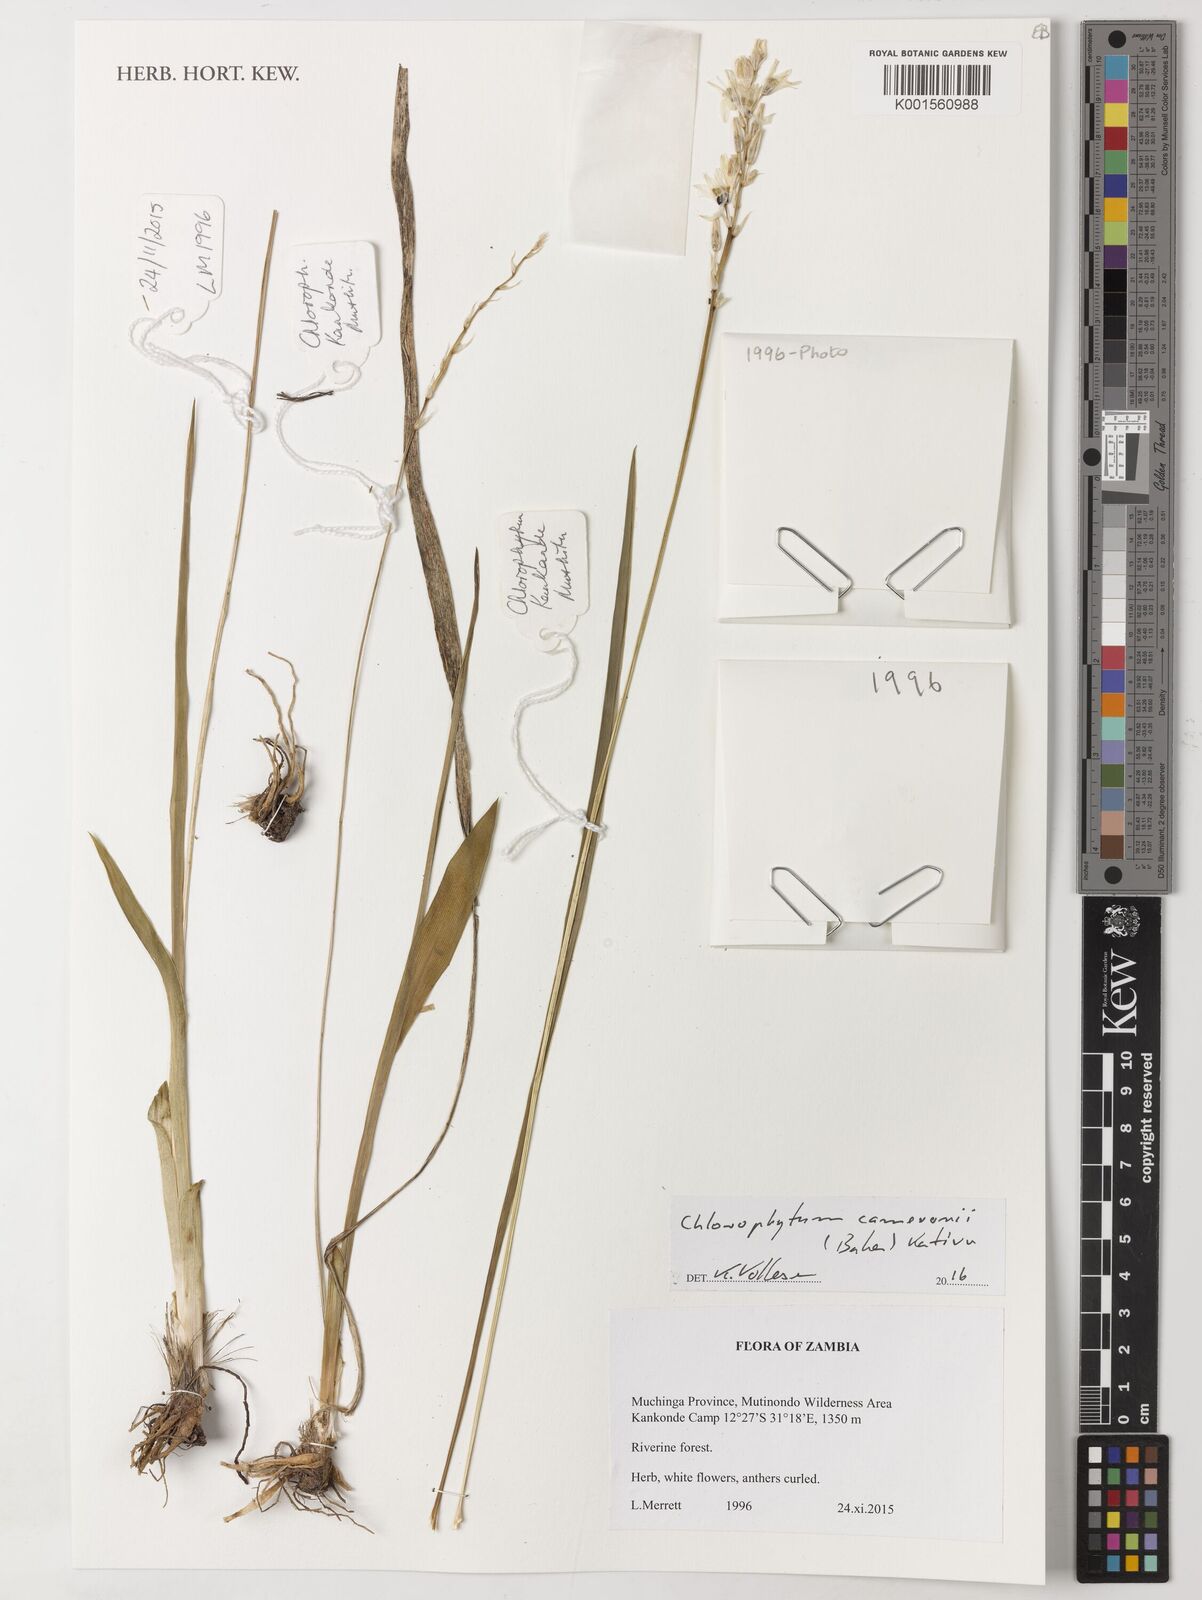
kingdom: Plantae
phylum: Tracheophyta
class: Liliopsida
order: Asparagales
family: Asparagaceae
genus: Chlorophytum
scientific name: Chlorophytum cameronii
